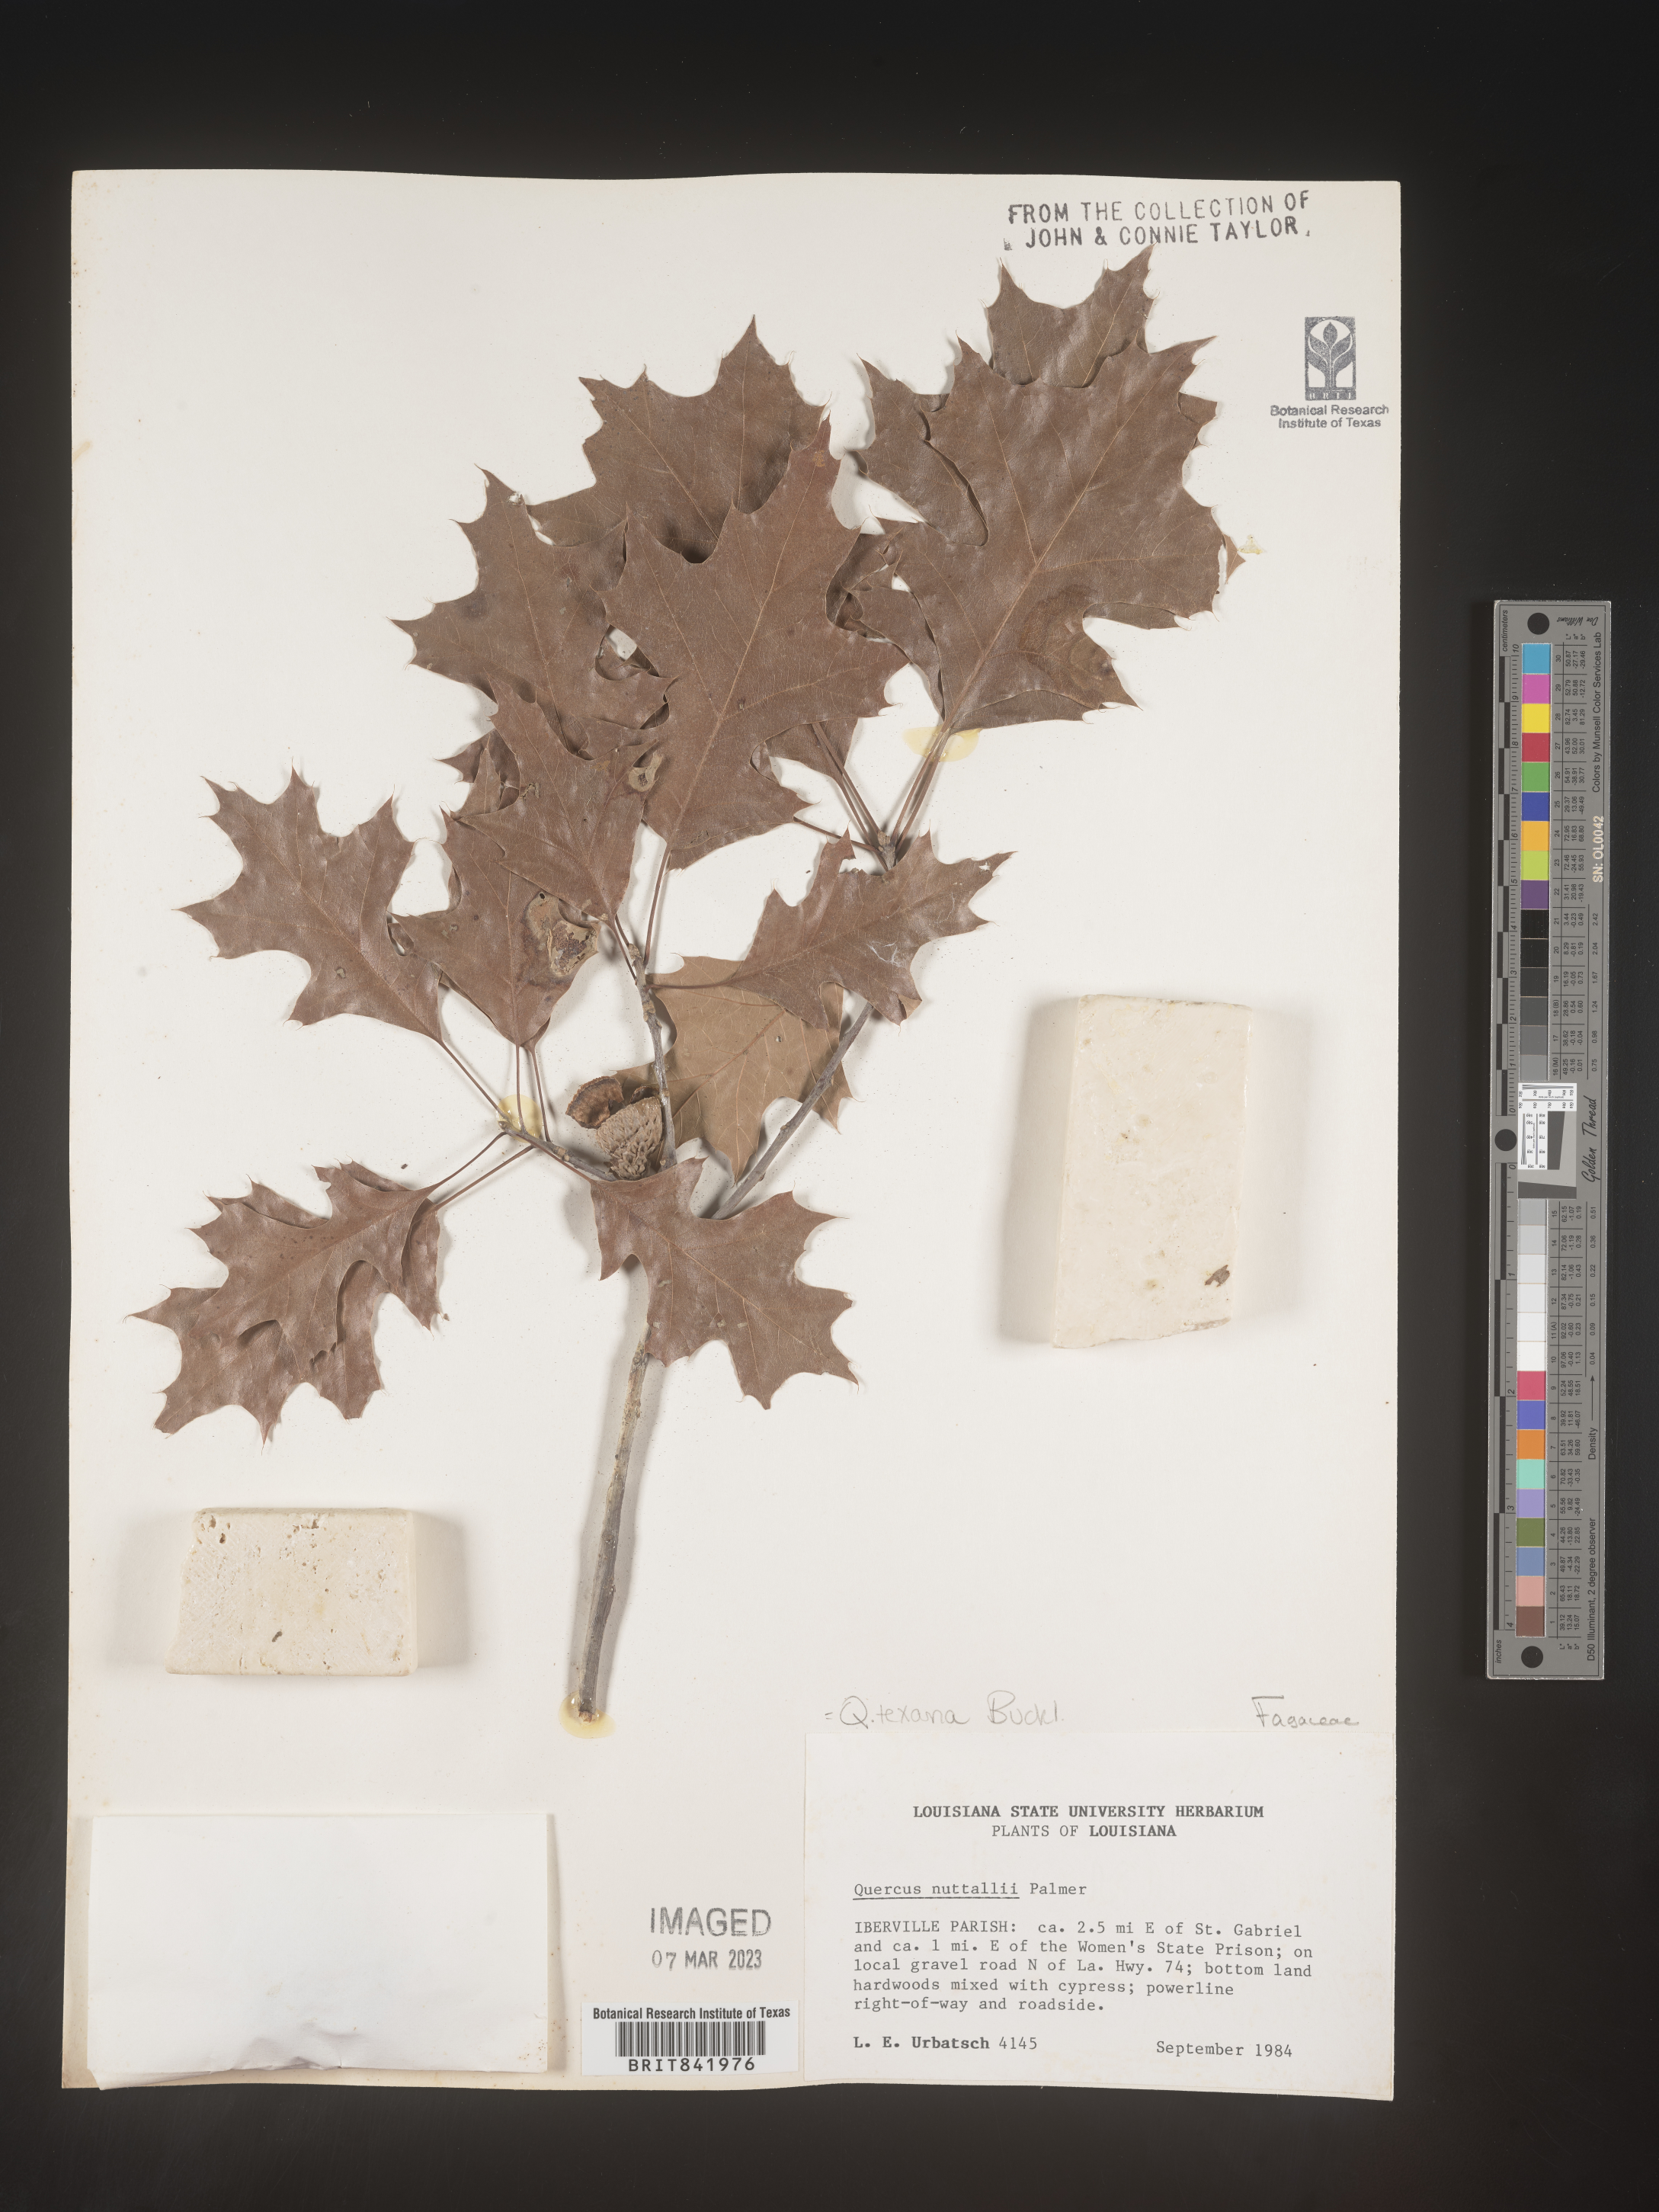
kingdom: Plantae
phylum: Tracheophyta
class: Magnoliopsida
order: Fagales
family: Fagaceae
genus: Quercus
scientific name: Quercus texana
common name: Nuttall oak
